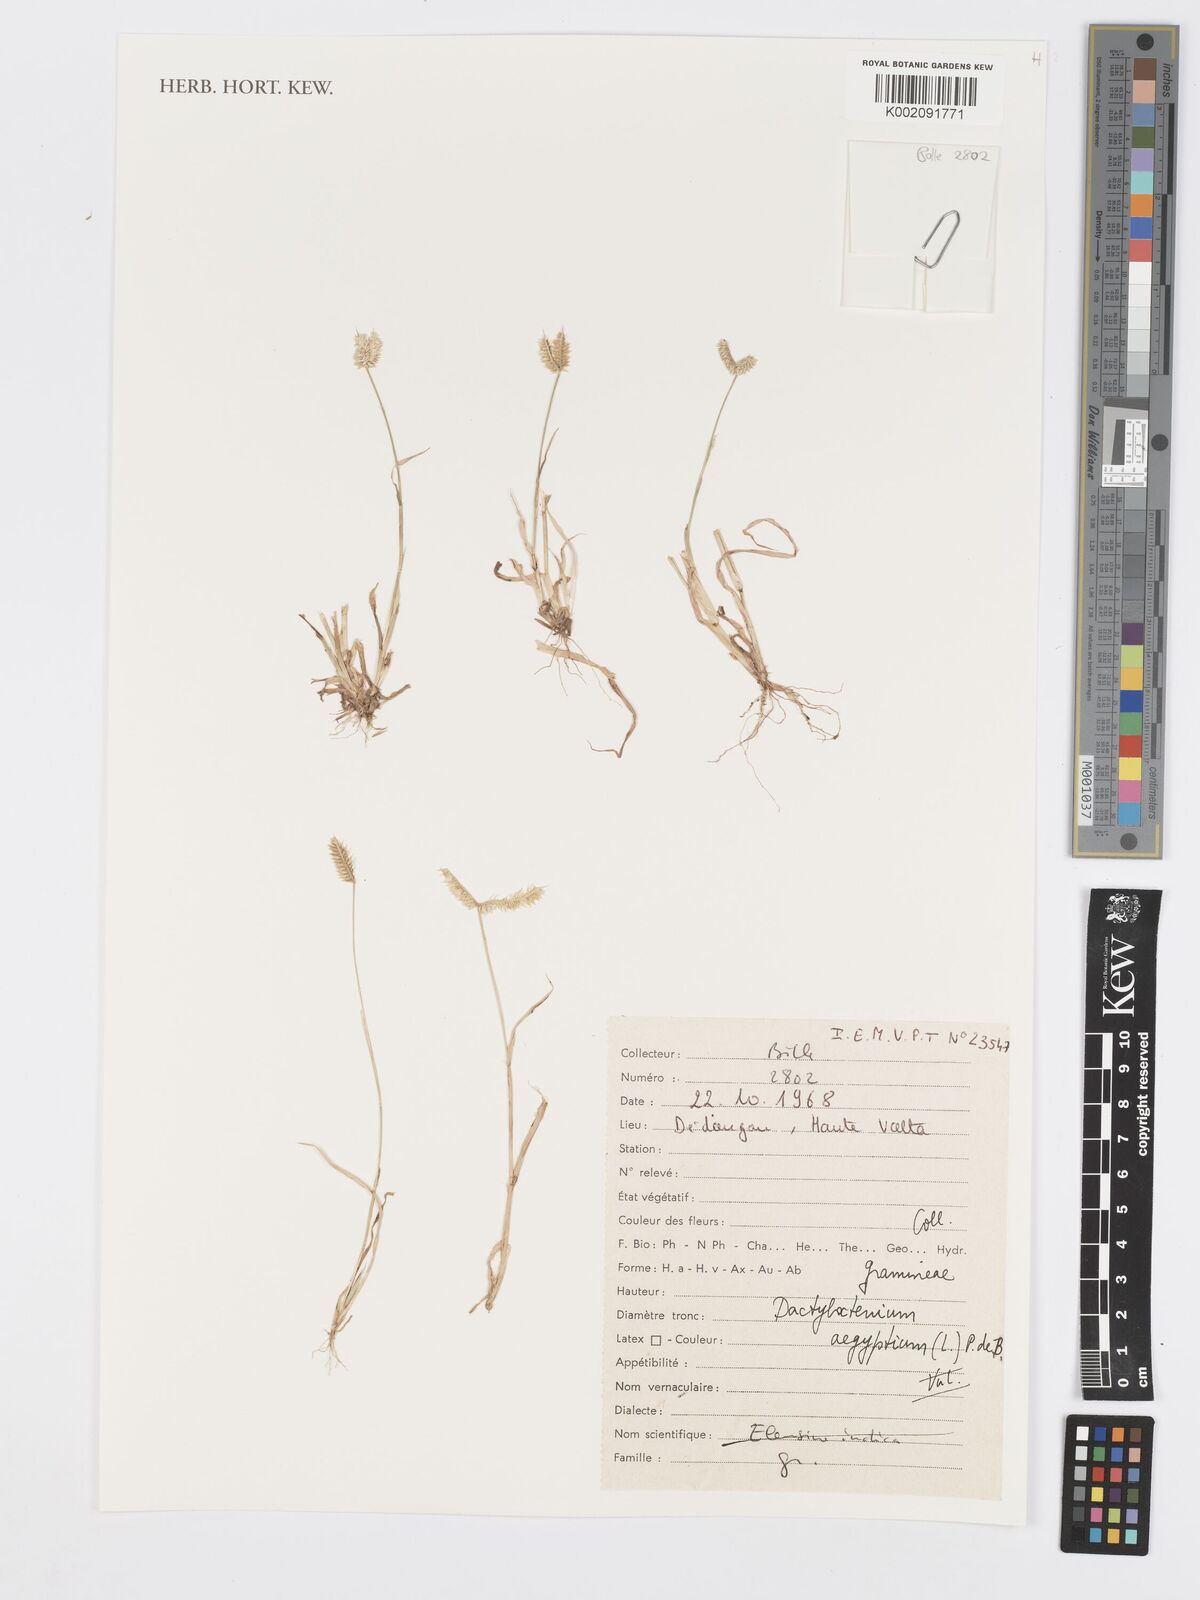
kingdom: Plantae
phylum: Tracheophyta
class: Liliopsida
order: Poales
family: Poaceae
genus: Dactyloctenium
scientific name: Dactyloctenium aegyptium
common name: Egyptian grass
